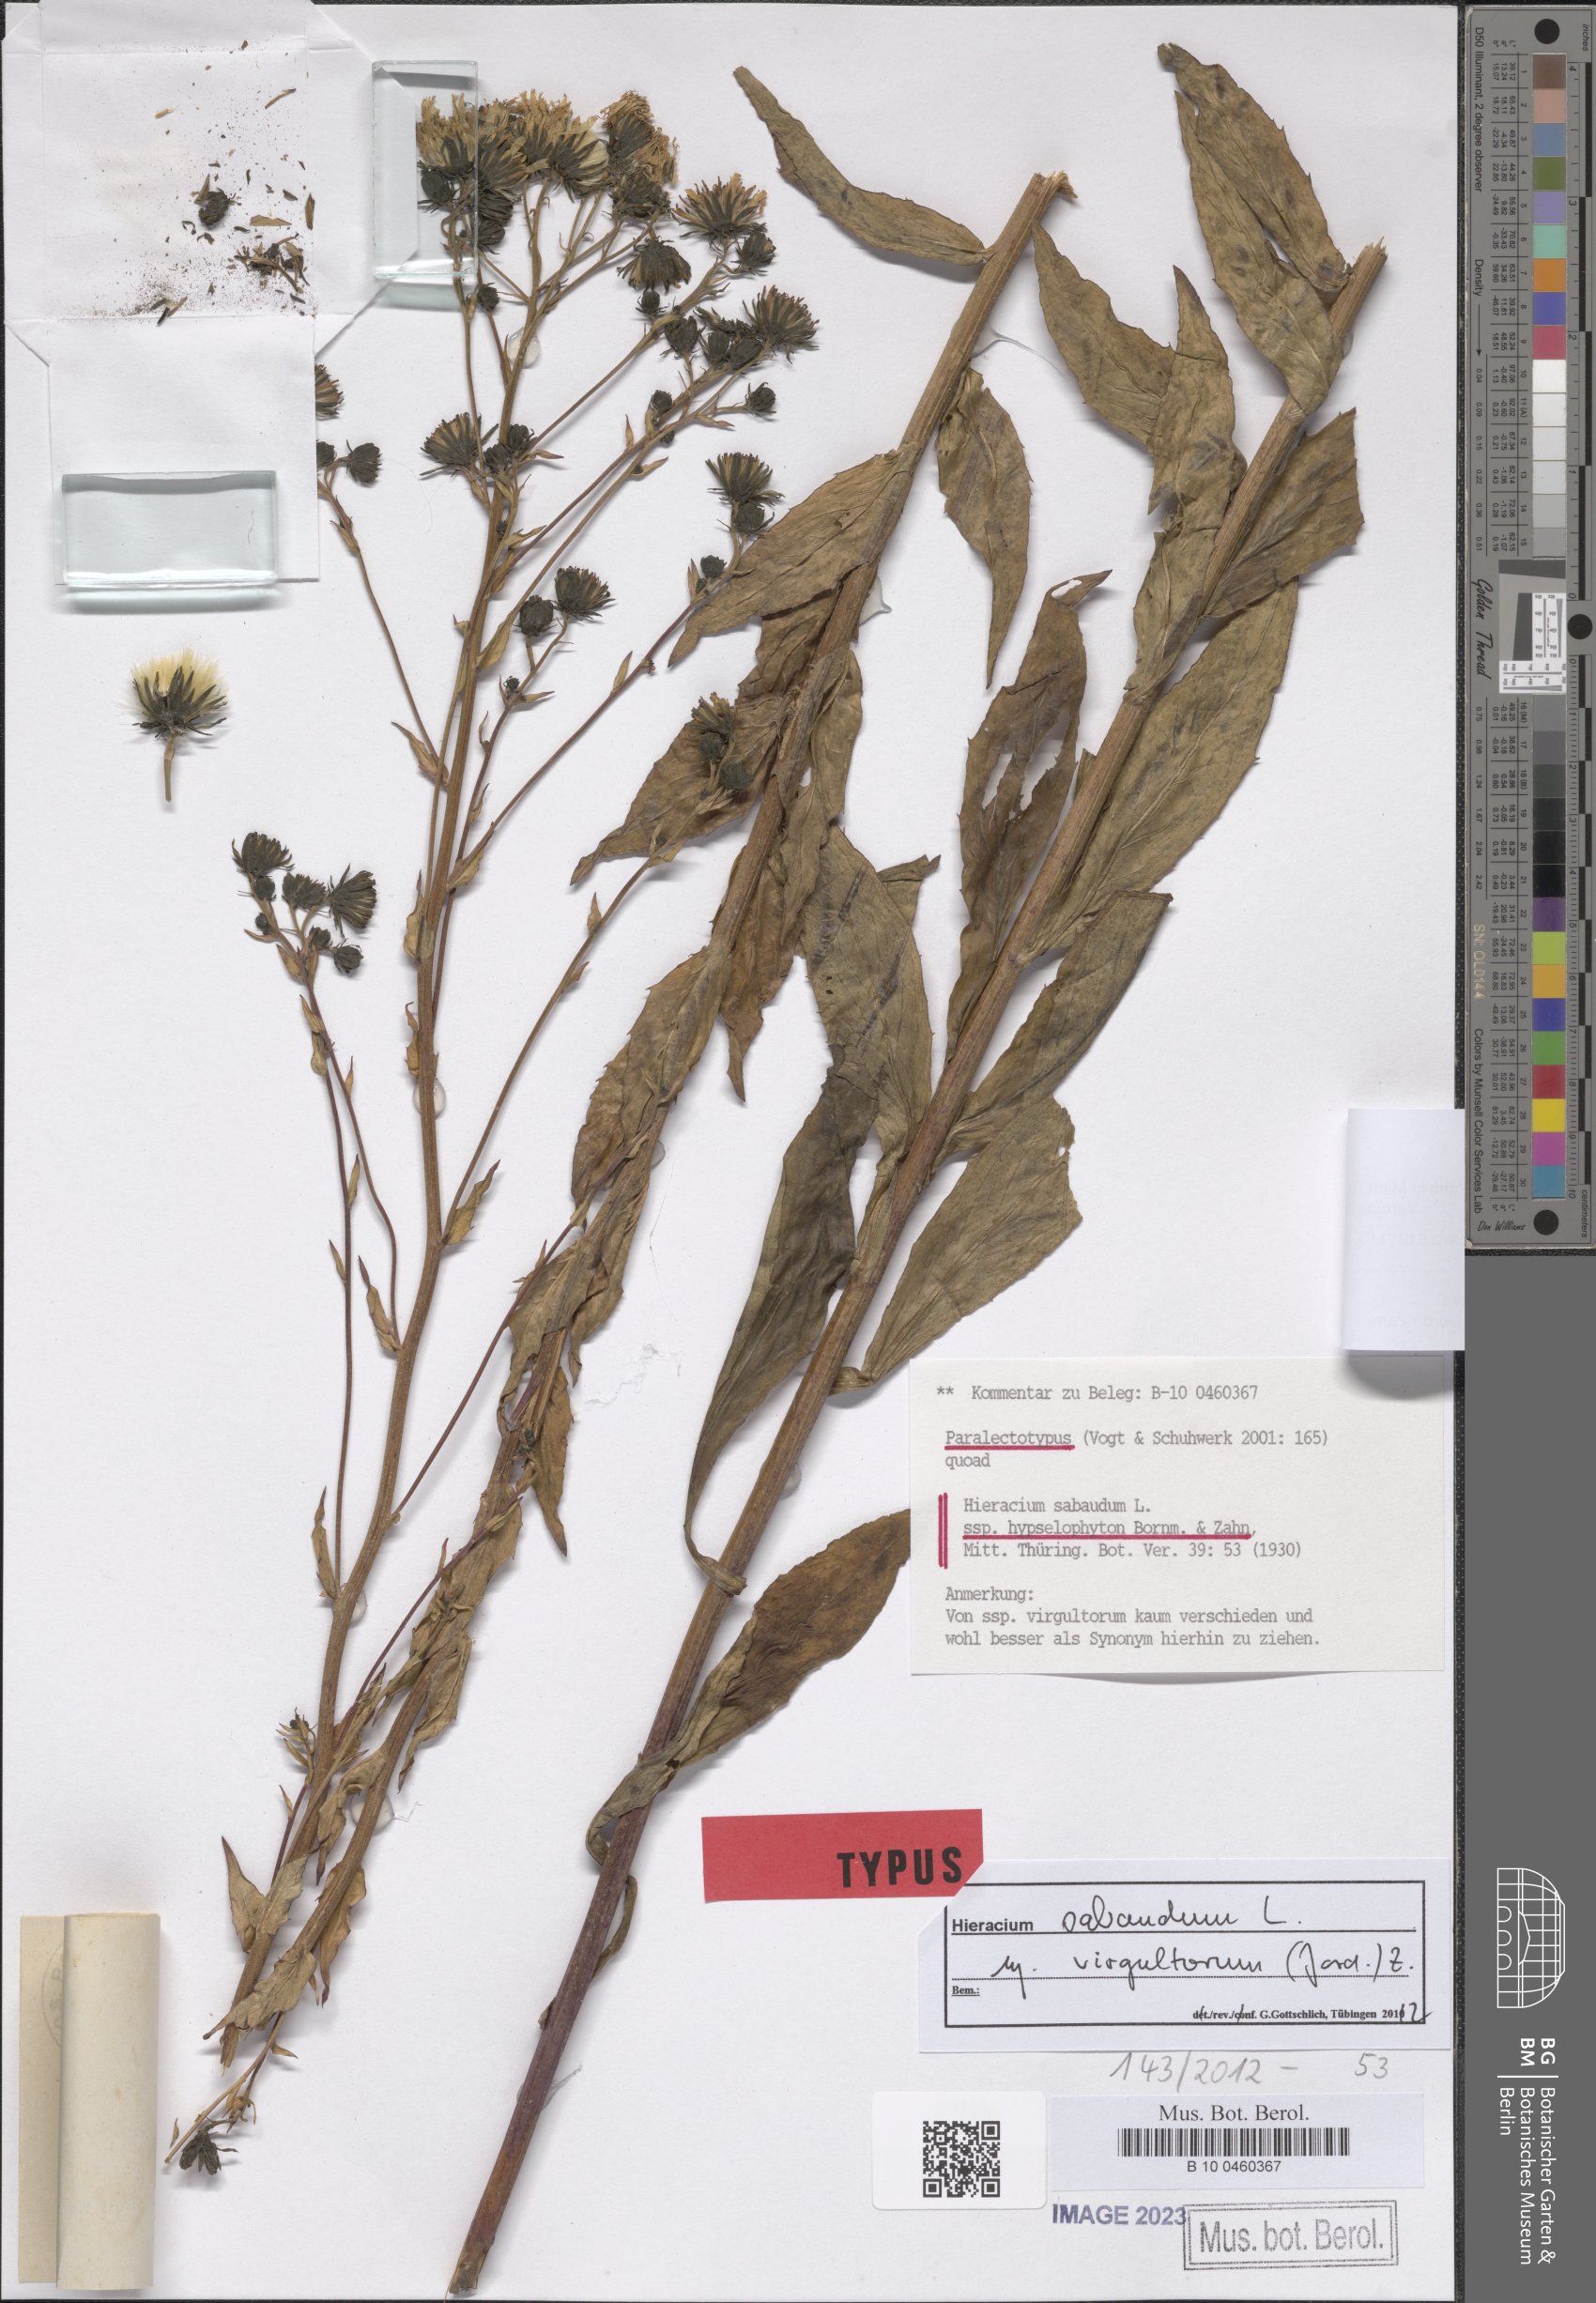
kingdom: Plantae
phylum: Tracheophyta
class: Magnoliopsida
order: Asterales
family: Asteraceae
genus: Hieracium
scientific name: Hieracium sabaudum
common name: New england hawkweed
